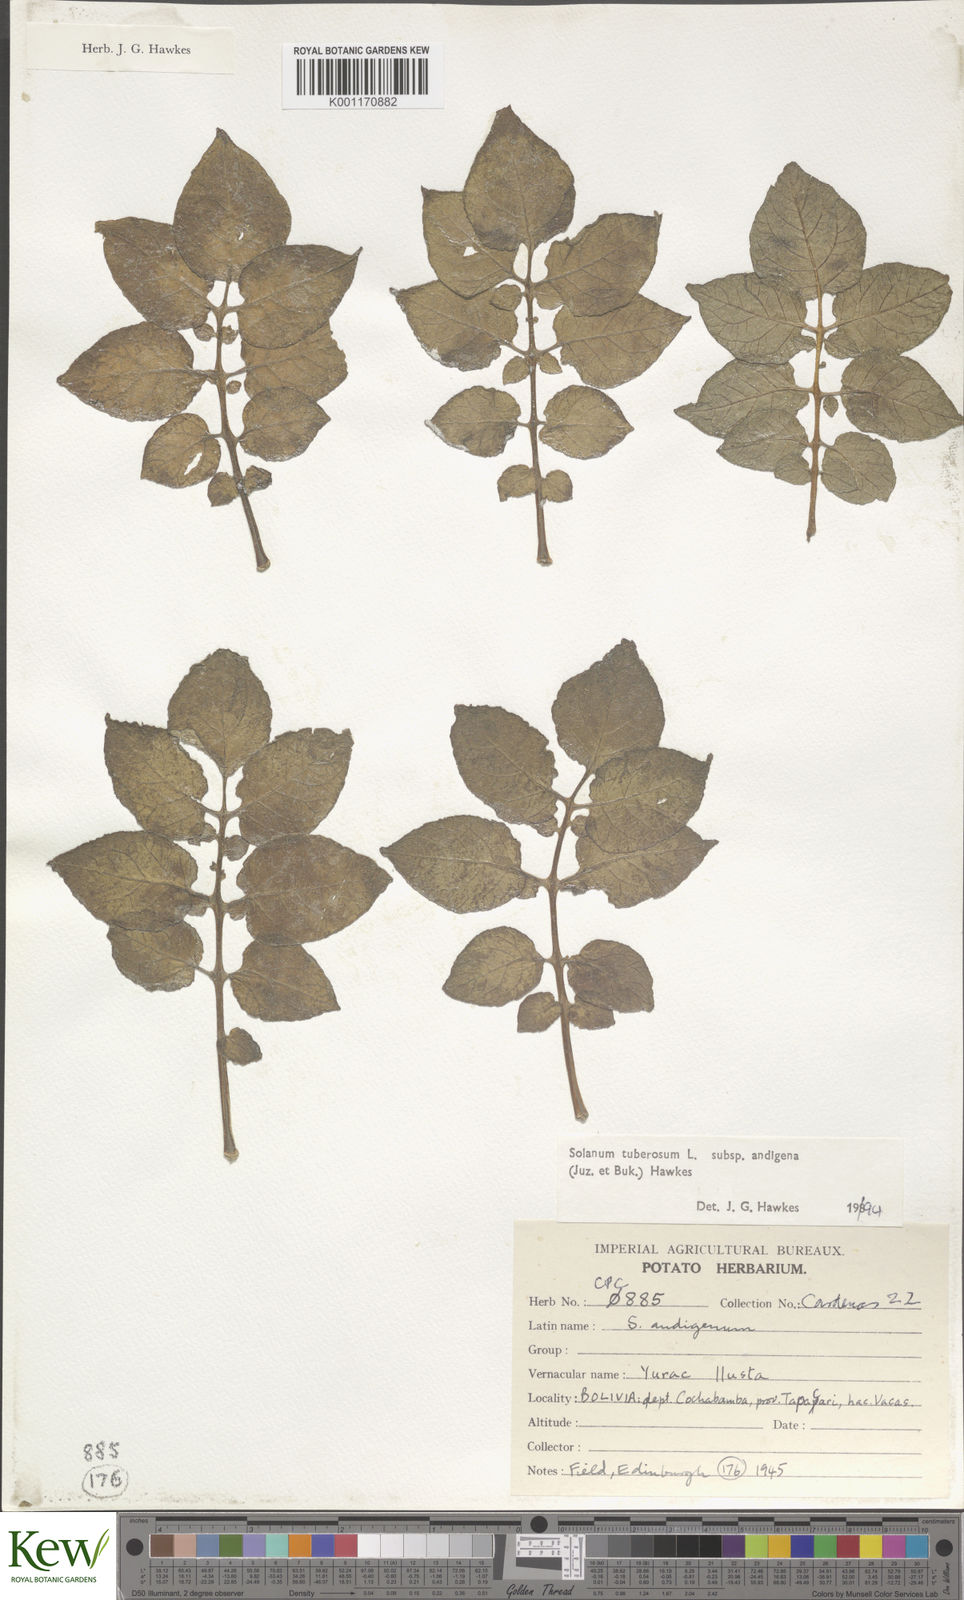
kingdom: Plantae
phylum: Tracheophyta
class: Magnoliopsida
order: Solanales
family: Solanaceae
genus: Solanum
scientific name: Solanum tuberosum
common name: Potato
